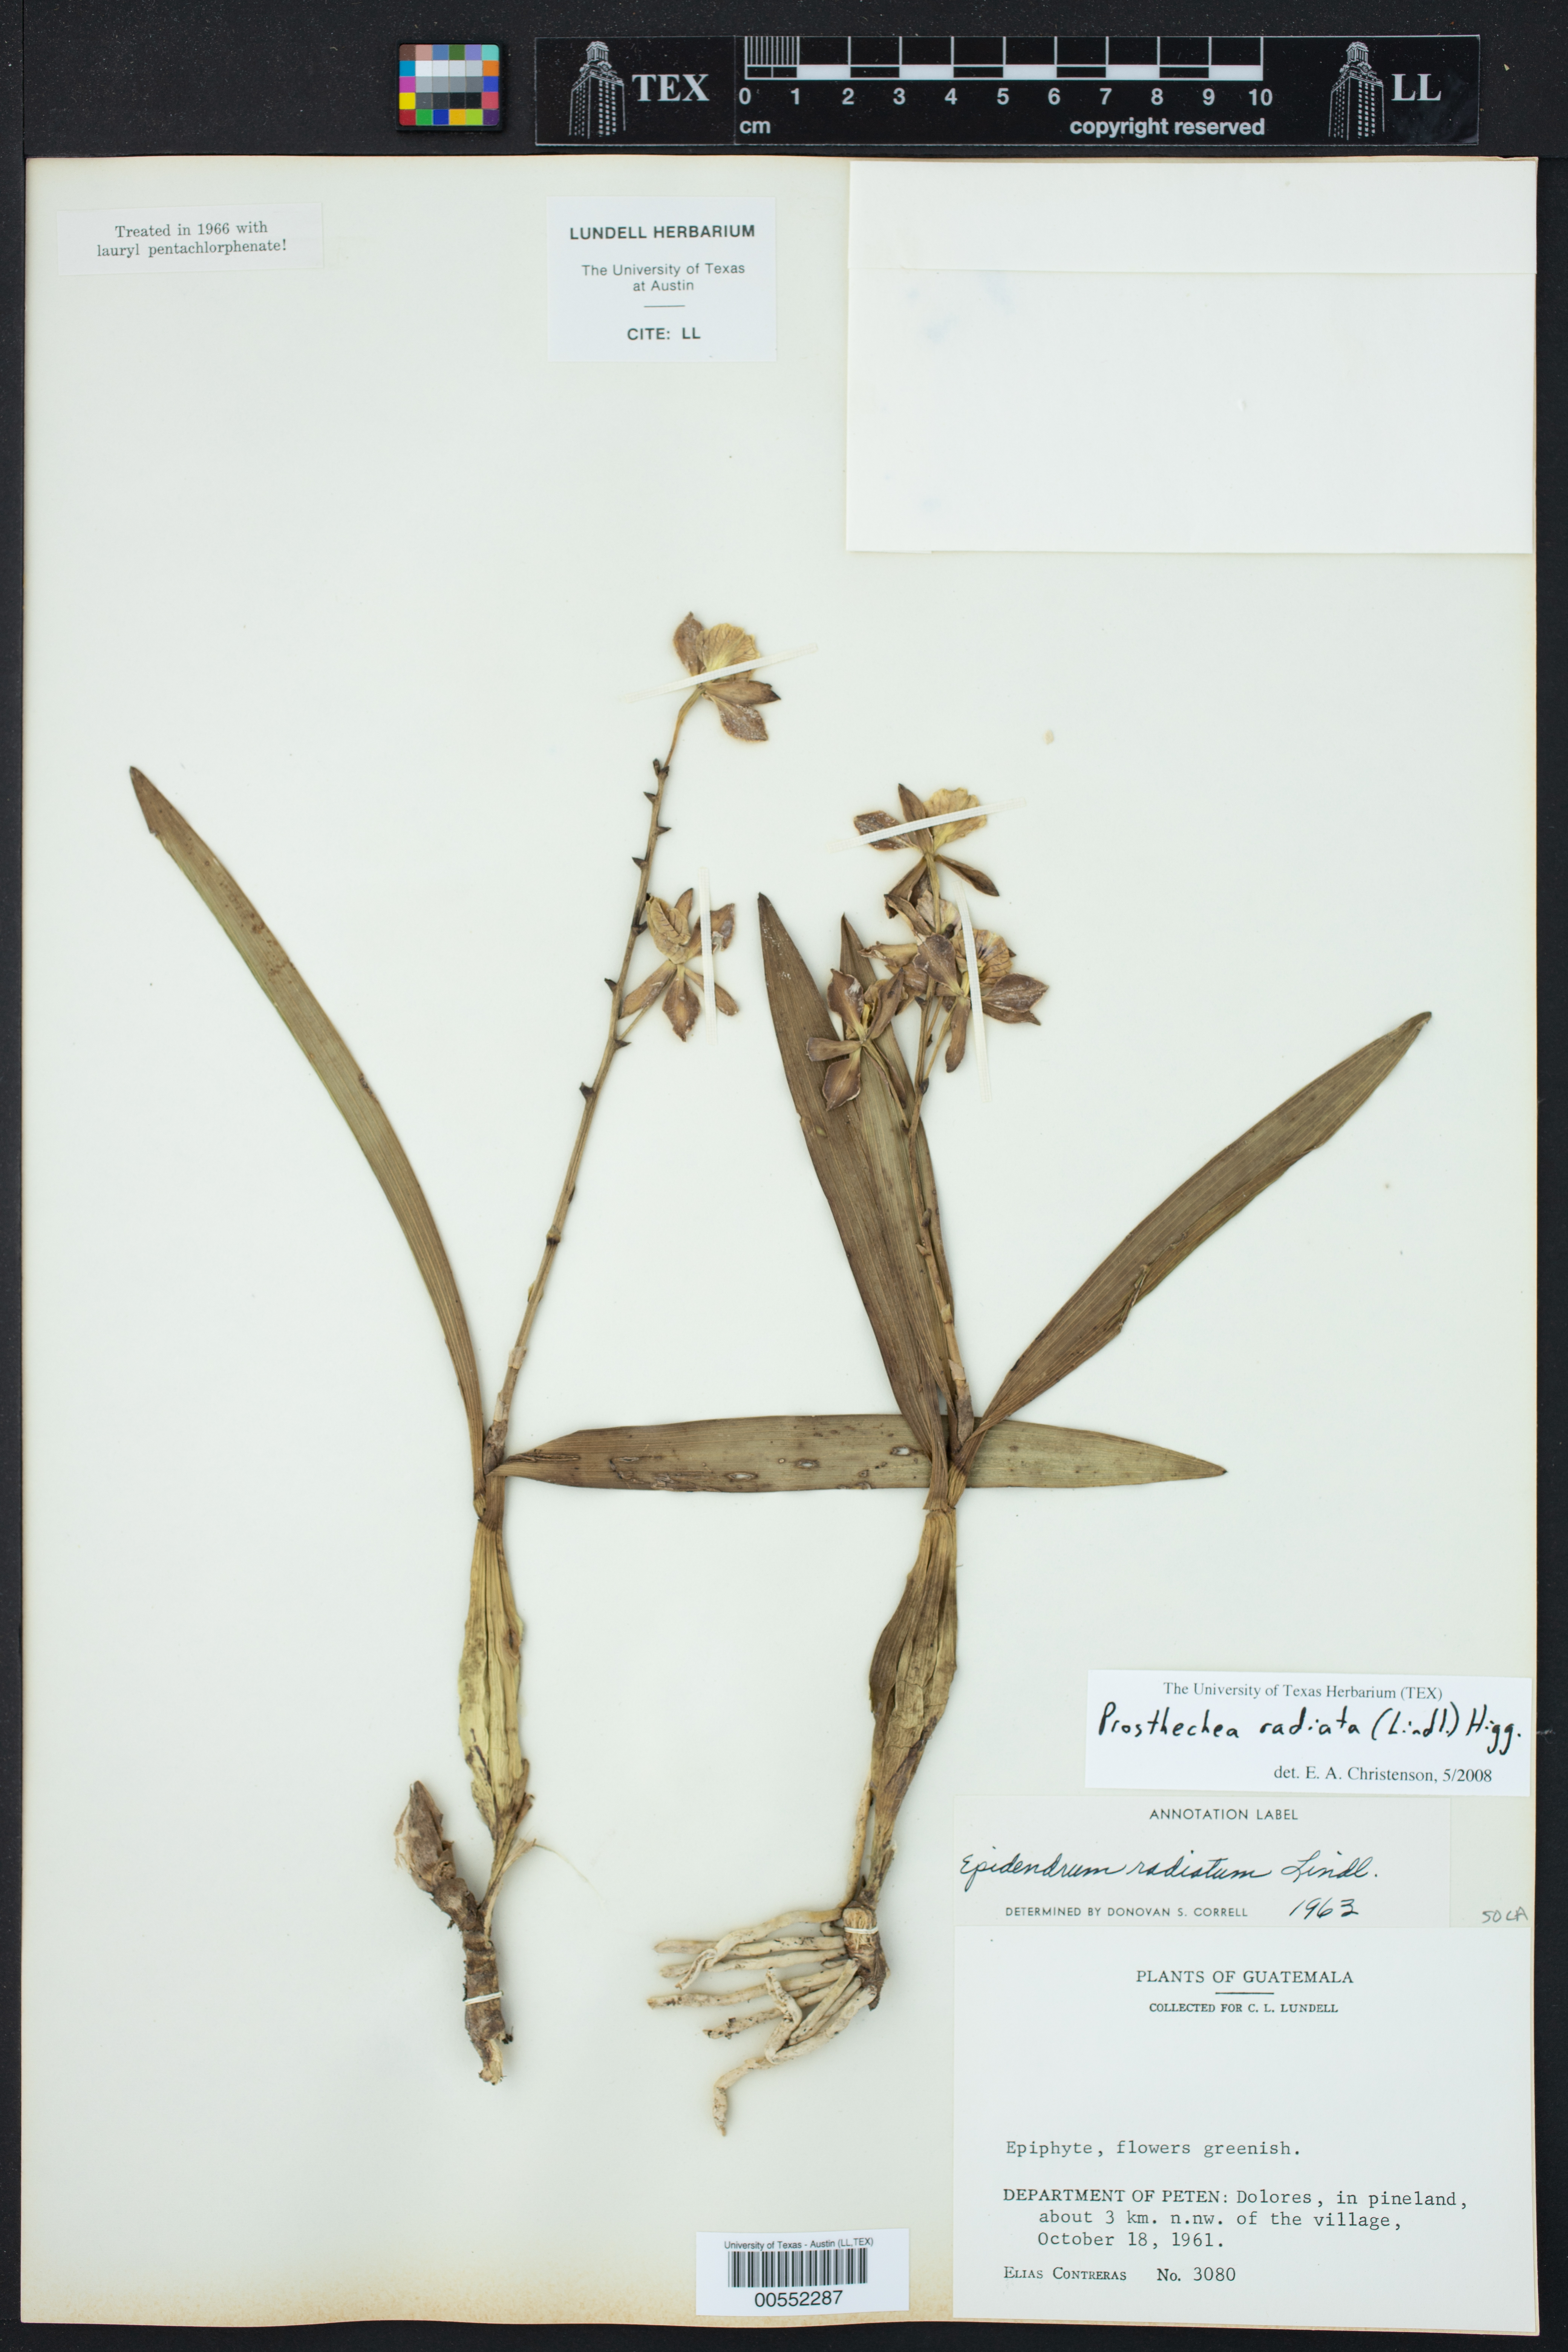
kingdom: Plantae
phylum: Tracheophyta
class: Liliopsida
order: Asparagales
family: Orchidaceae
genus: Prosthechea
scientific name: Prosthechea radiata
